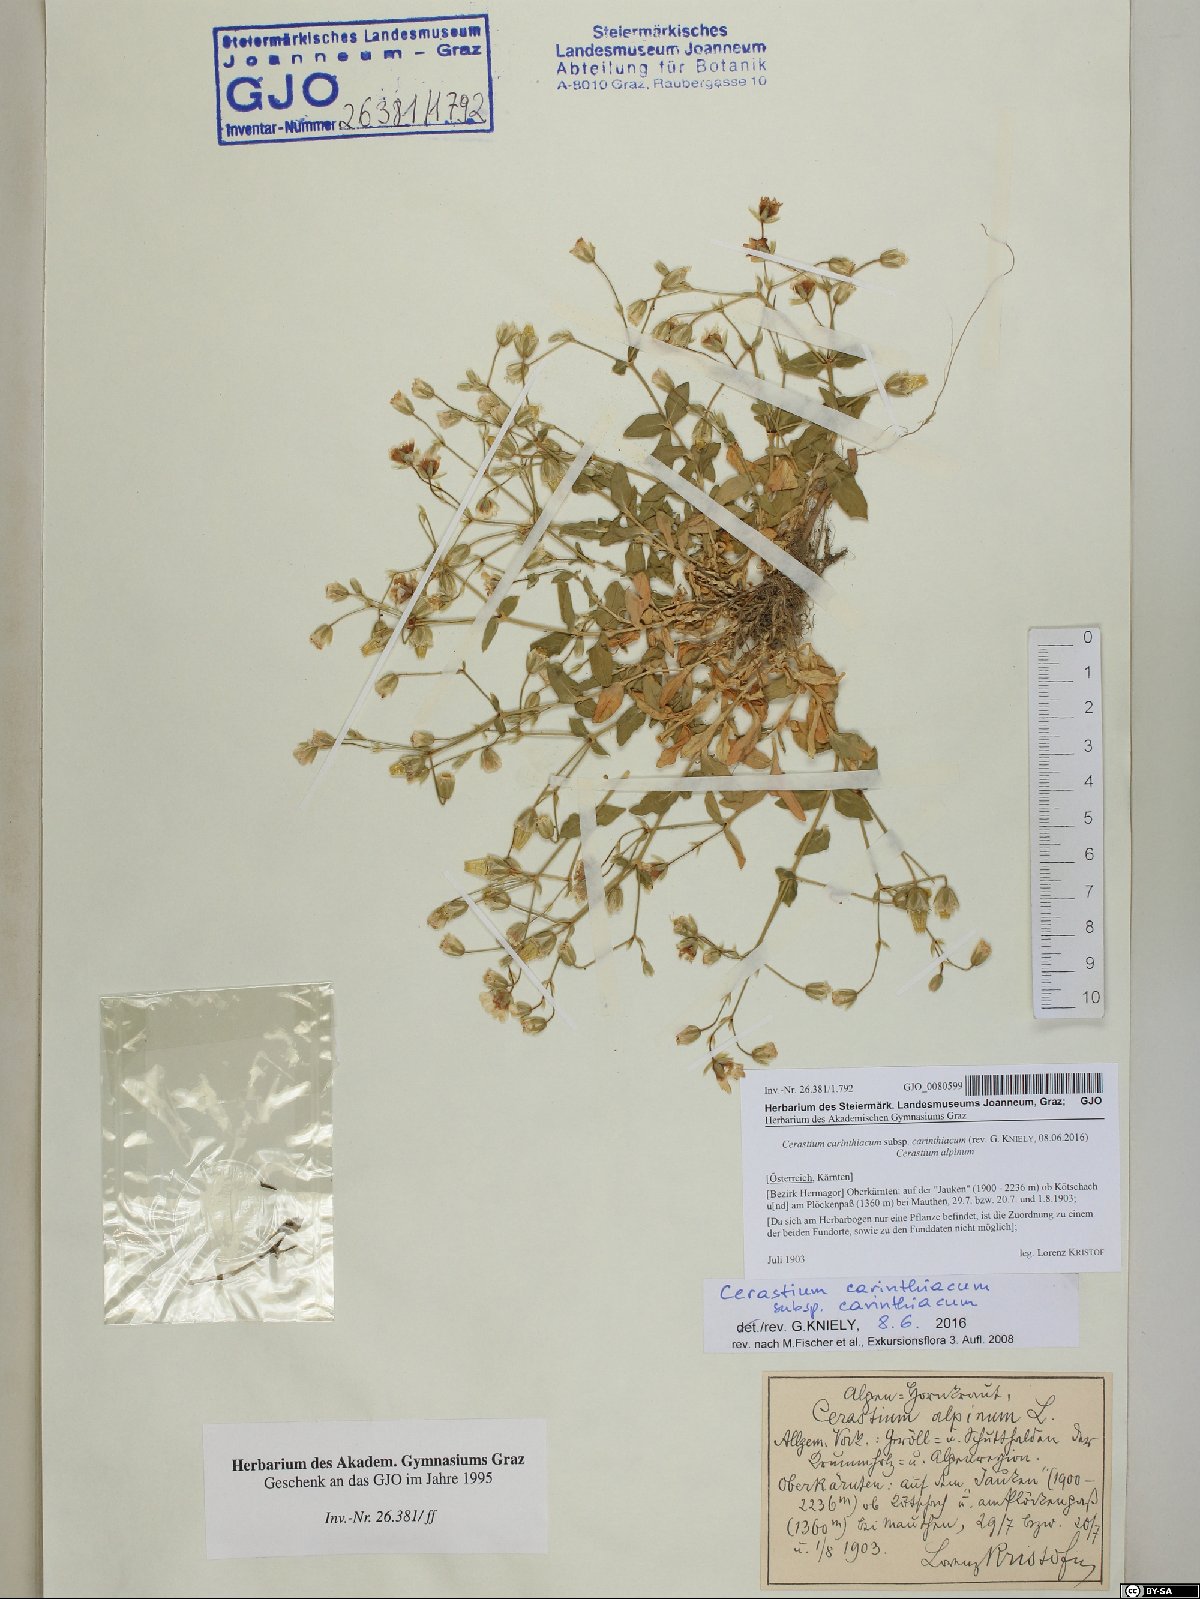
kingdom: Plantae
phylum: Tracheophyta
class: Magnoliopsida
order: Caryophyllales
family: Caryophyllaceae
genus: Cerastium
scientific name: Cerastium carinthiacum
